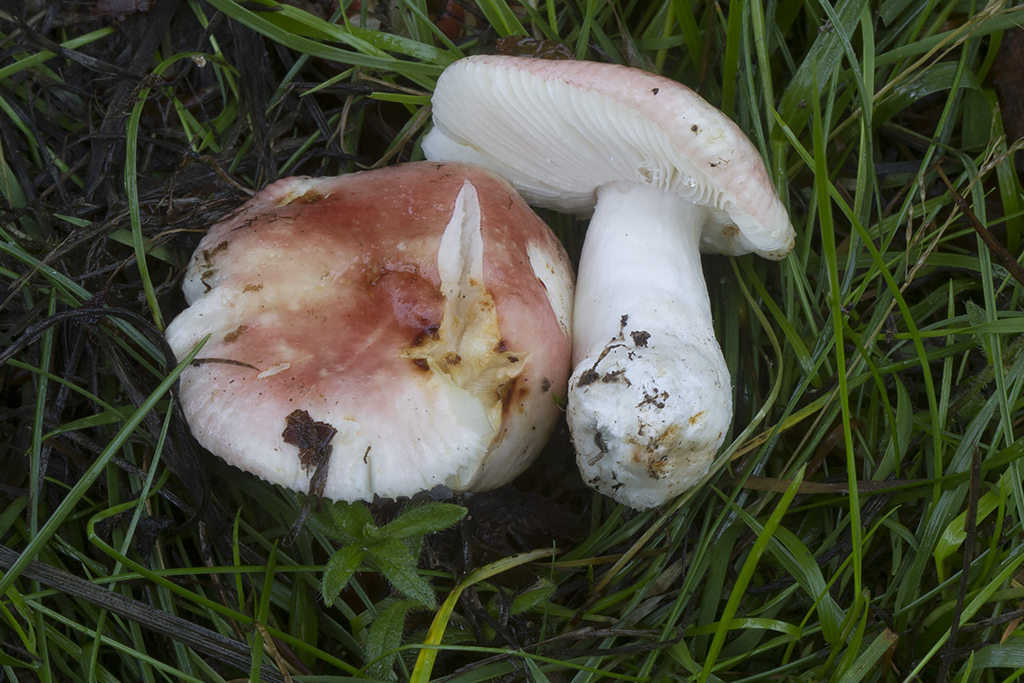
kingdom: Fungi
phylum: Basidiomycota
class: Agaricomycetes
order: Russulales
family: Russulaceae
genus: Russula
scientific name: Russula puellula
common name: gulnende skørhat
